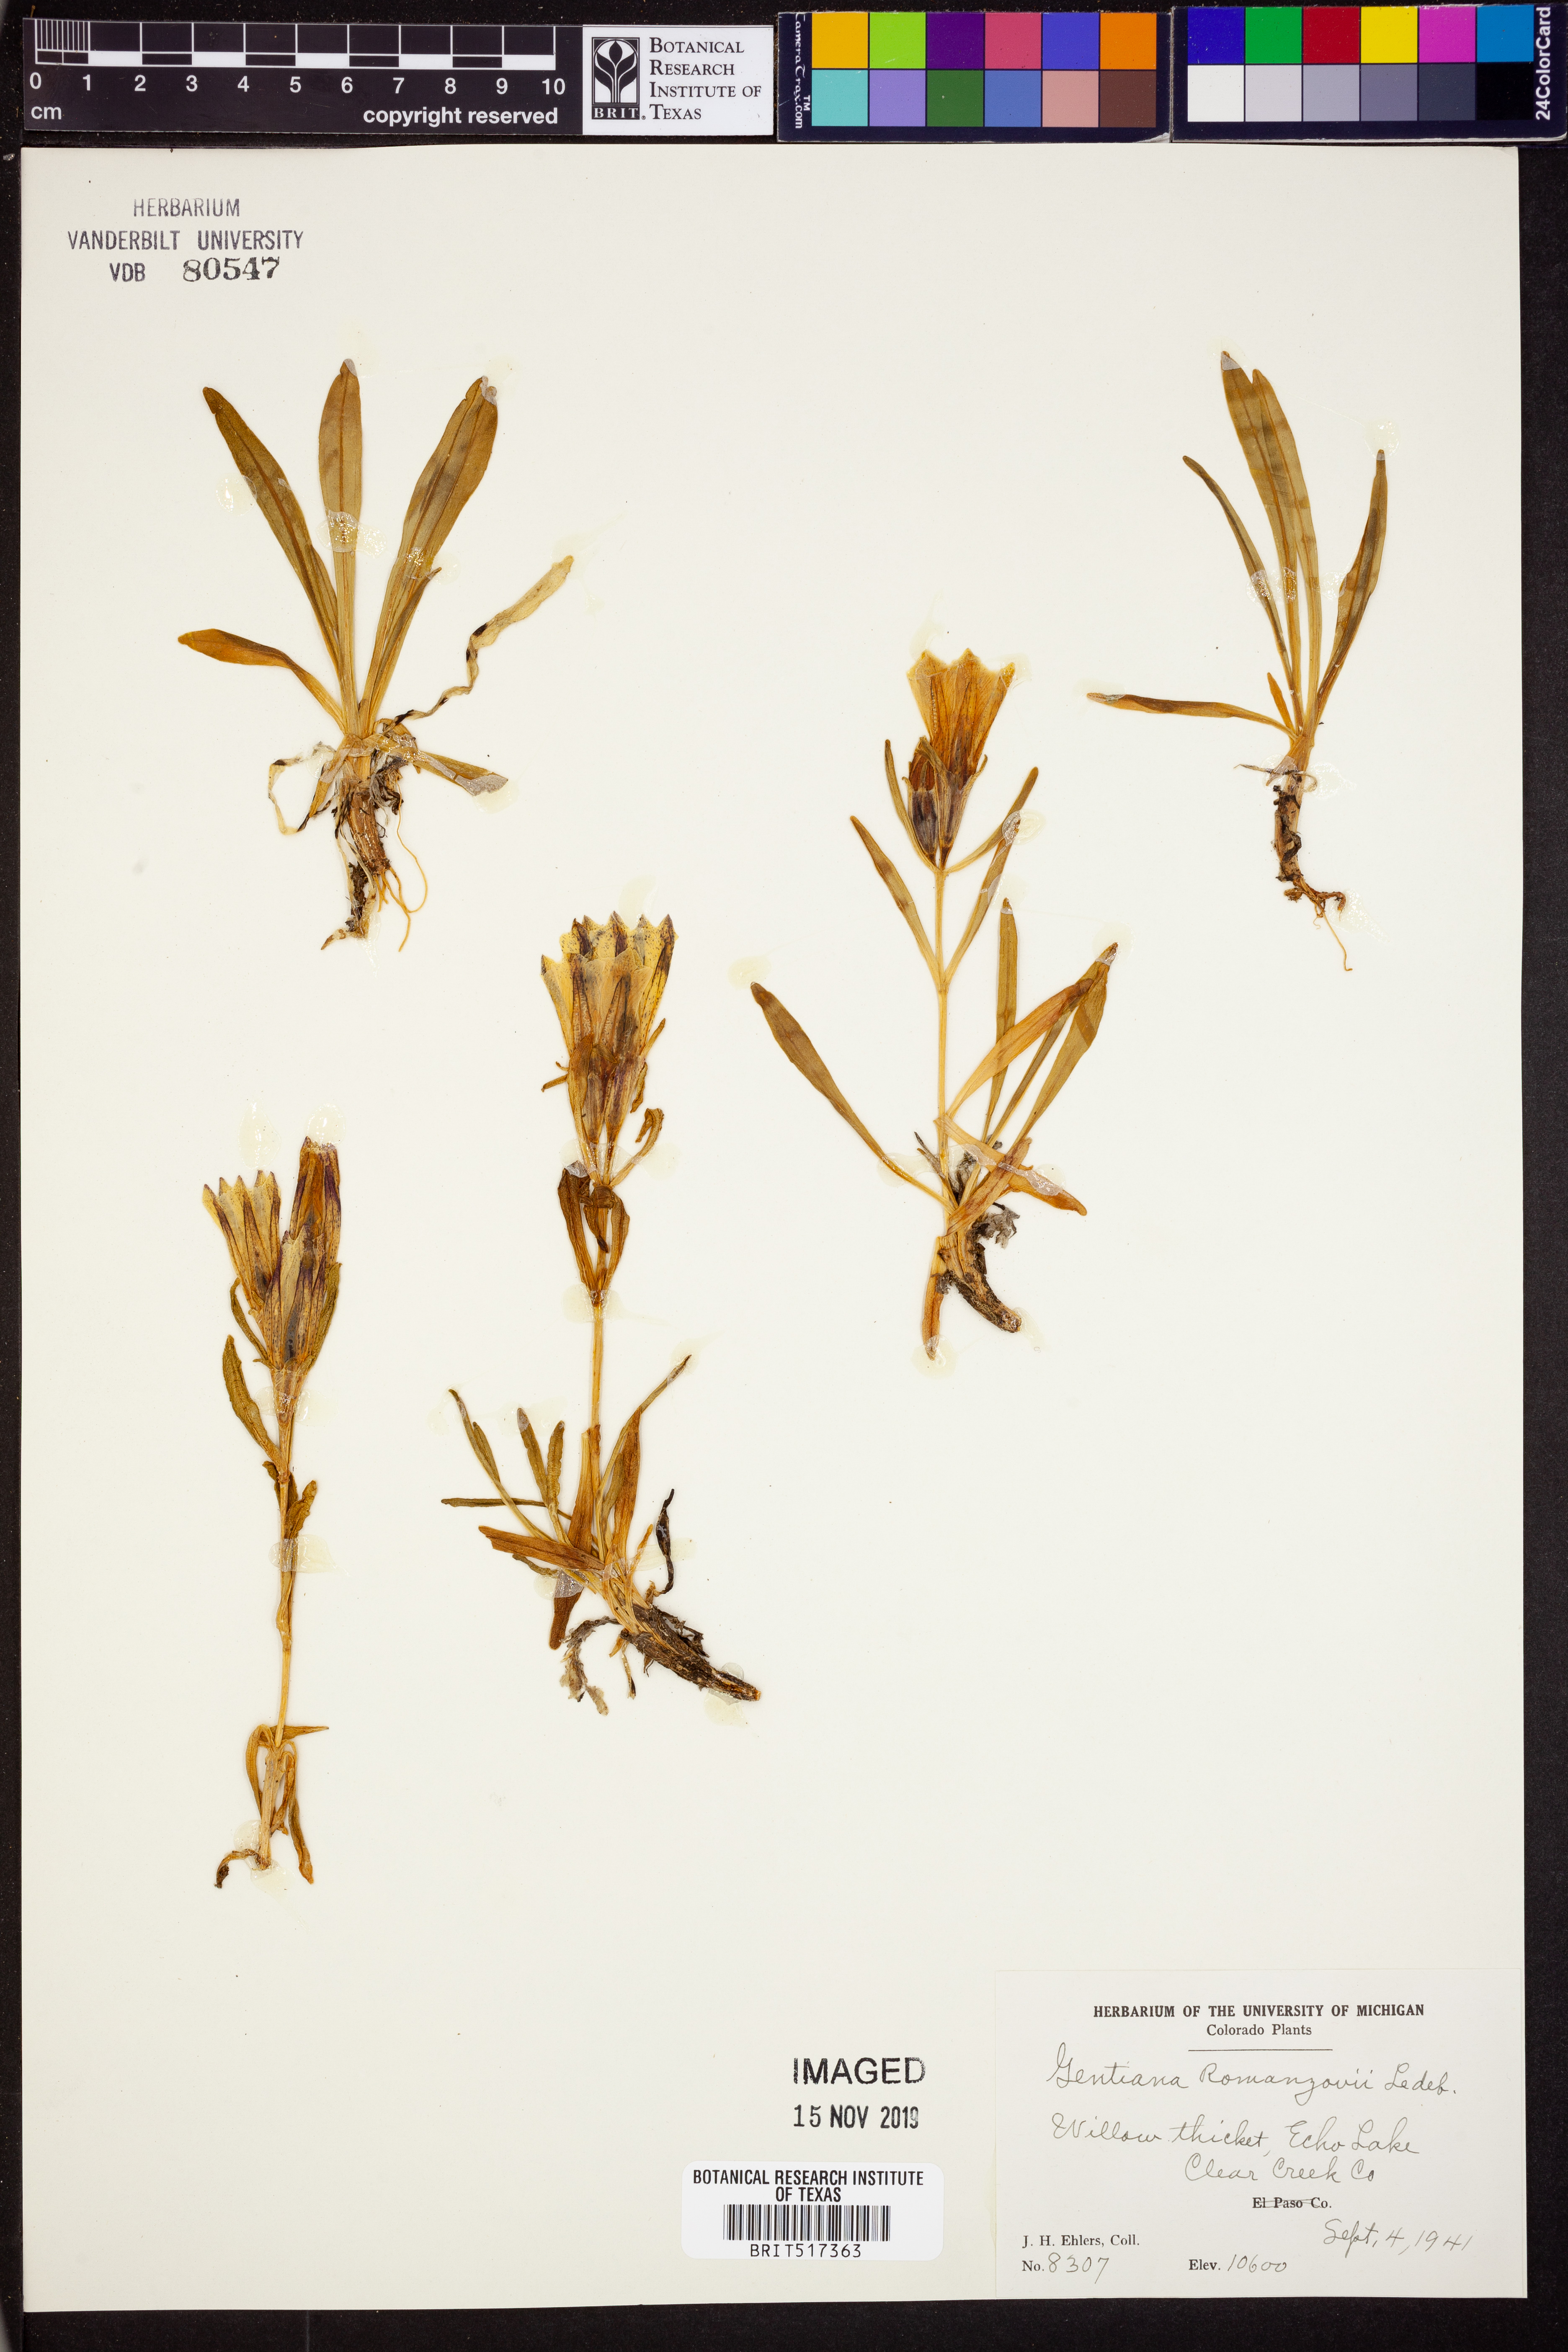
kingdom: Plantae
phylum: Tracheophyta
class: Magnoliopsida
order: Gentianales
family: Gentianaceae
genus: Gentiana
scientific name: Gentiana algida
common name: Arctic gentian
